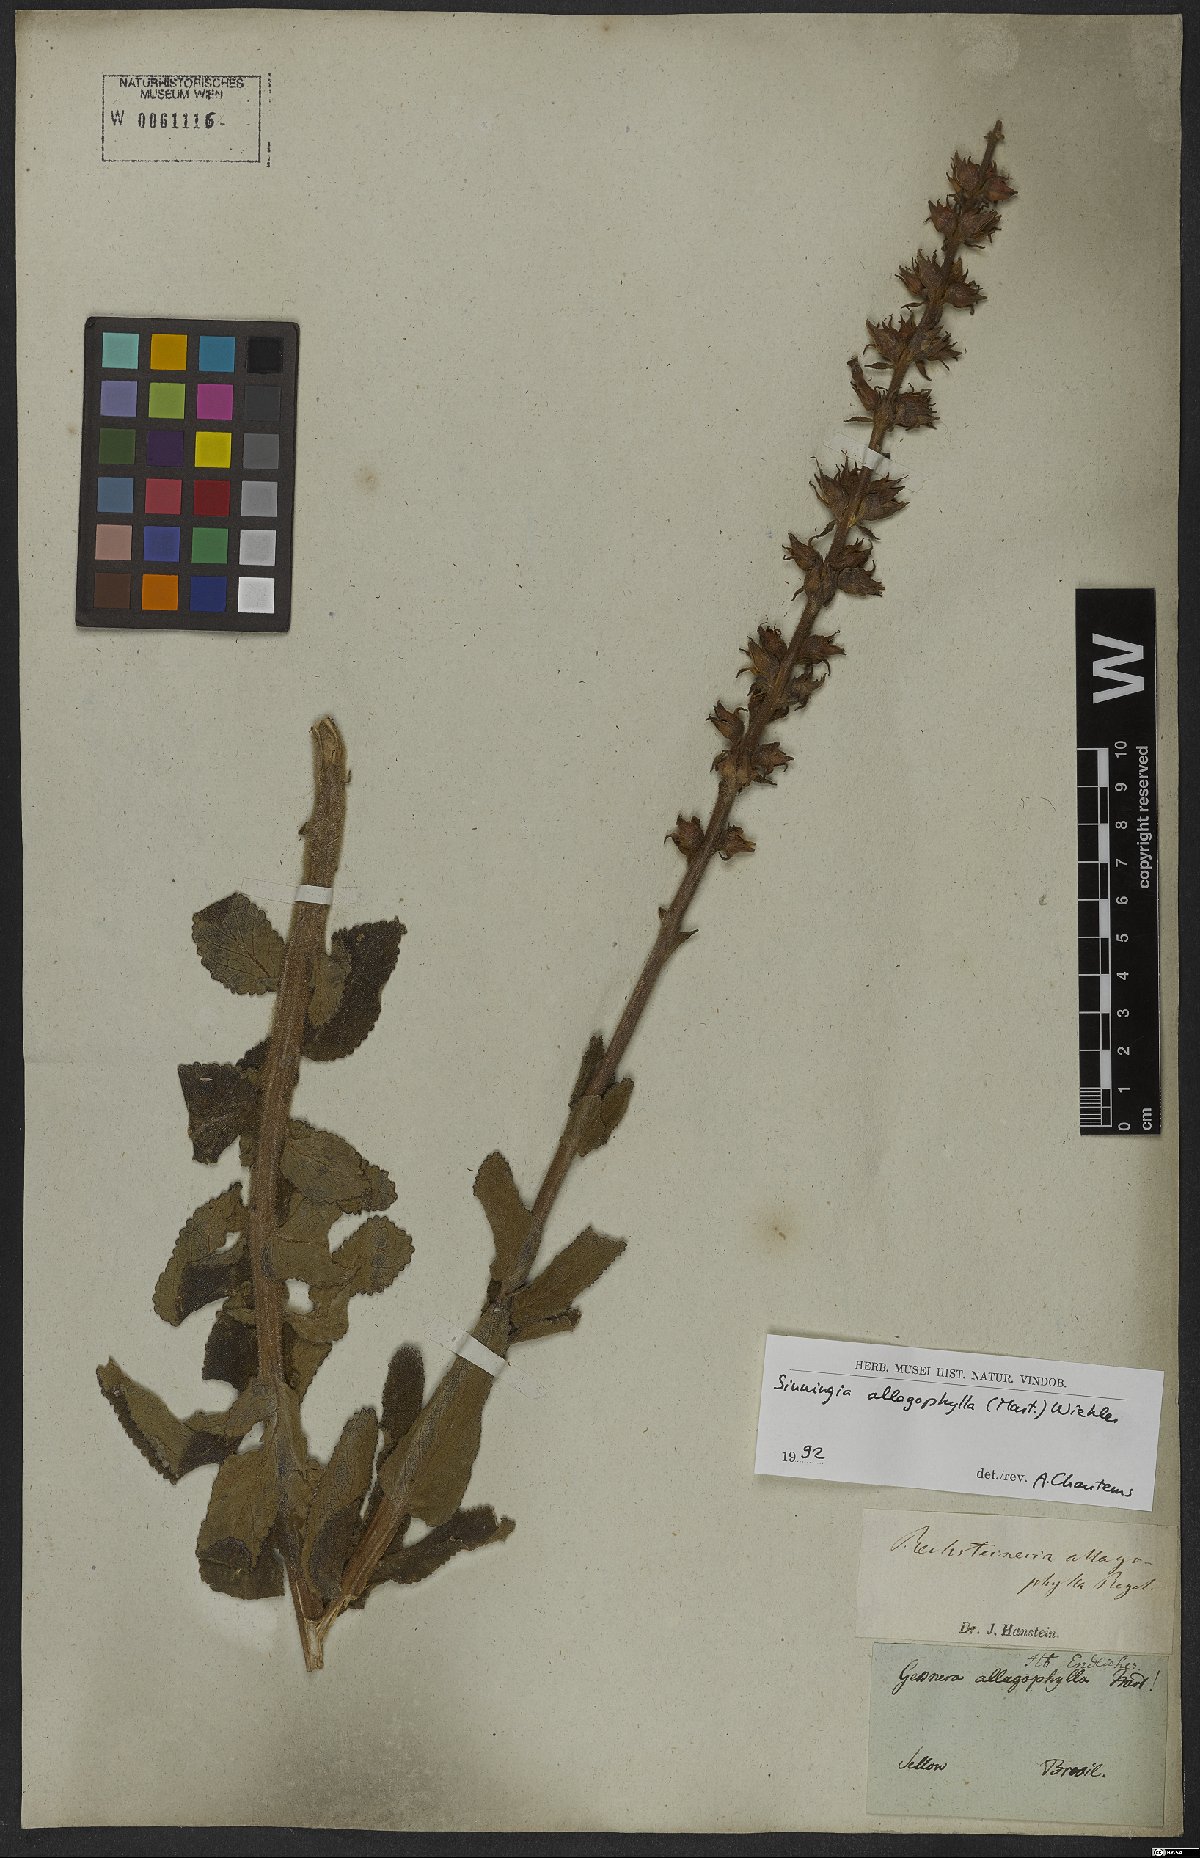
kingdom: Plantae
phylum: Tracheophyta
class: Magnoliopsida
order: Lamiales
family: Gesneriaceae
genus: Sinningia
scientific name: Sinningia allagophylla
